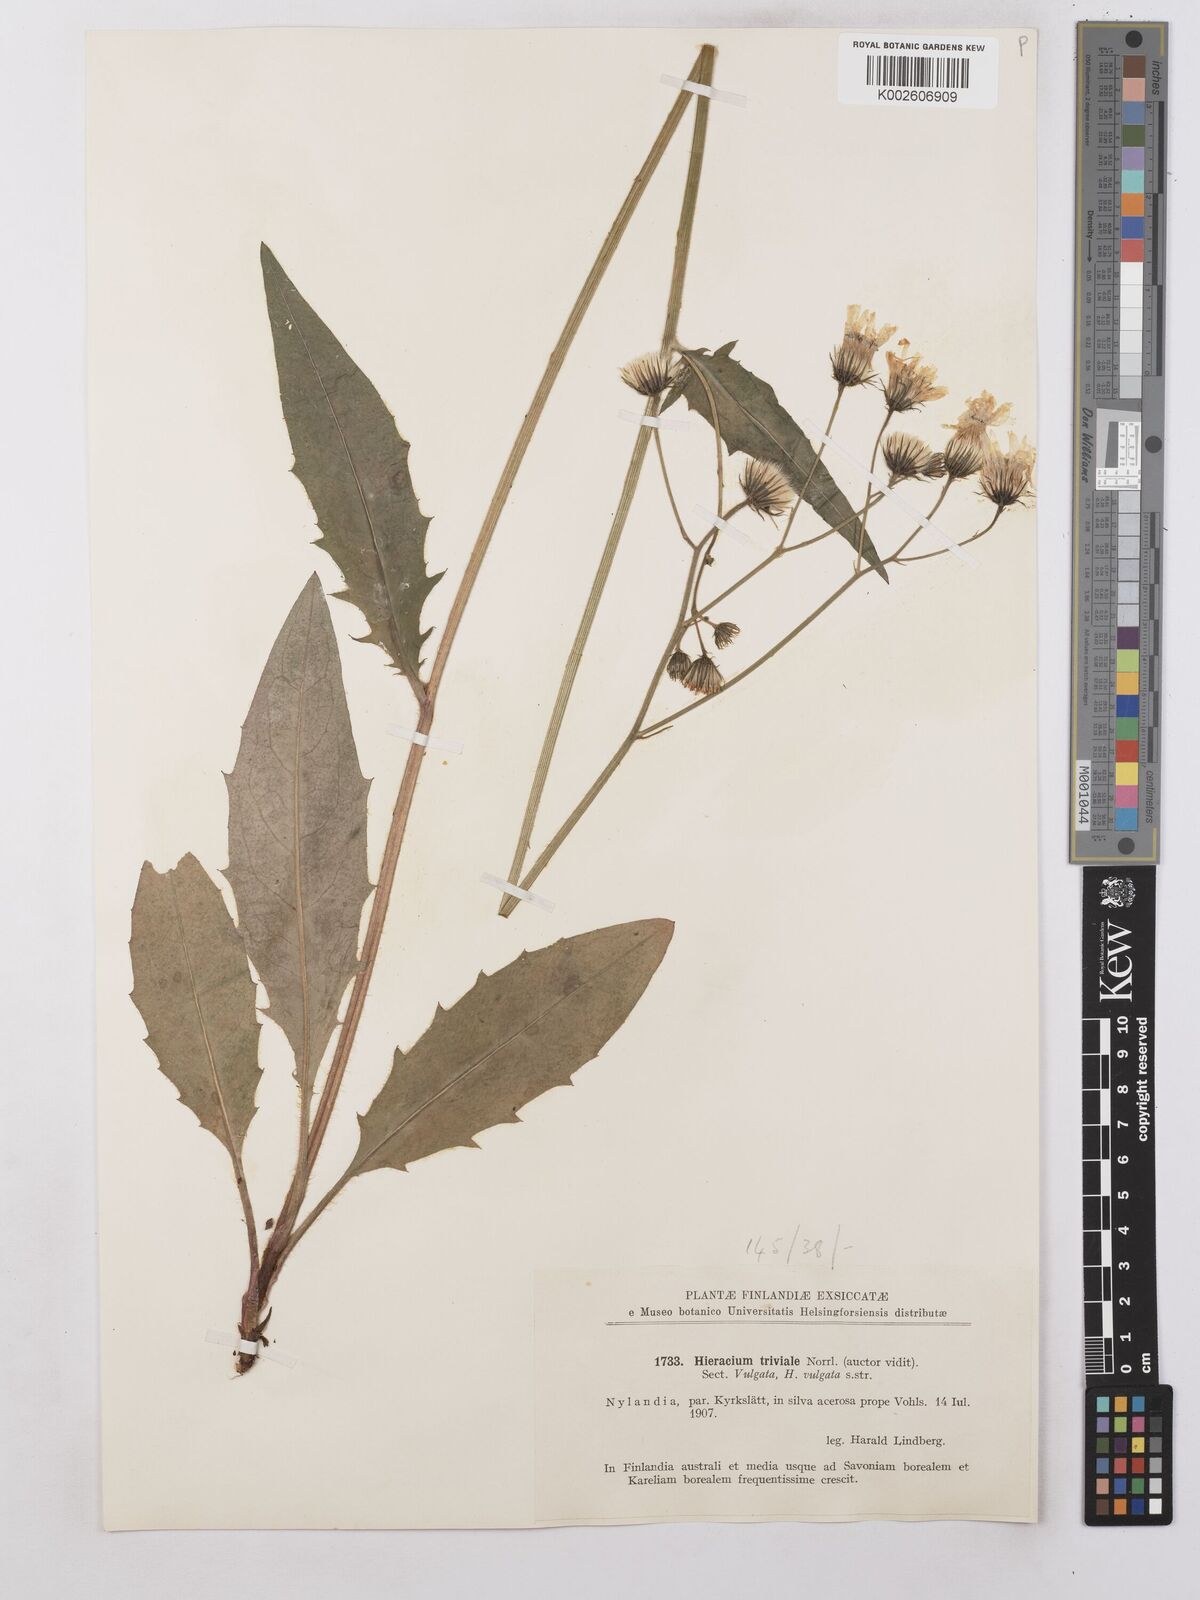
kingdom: Plantae
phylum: Tracheophyta
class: Magnoliopsida
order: Asterales
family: Asteraceae
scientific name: Asteraceae
